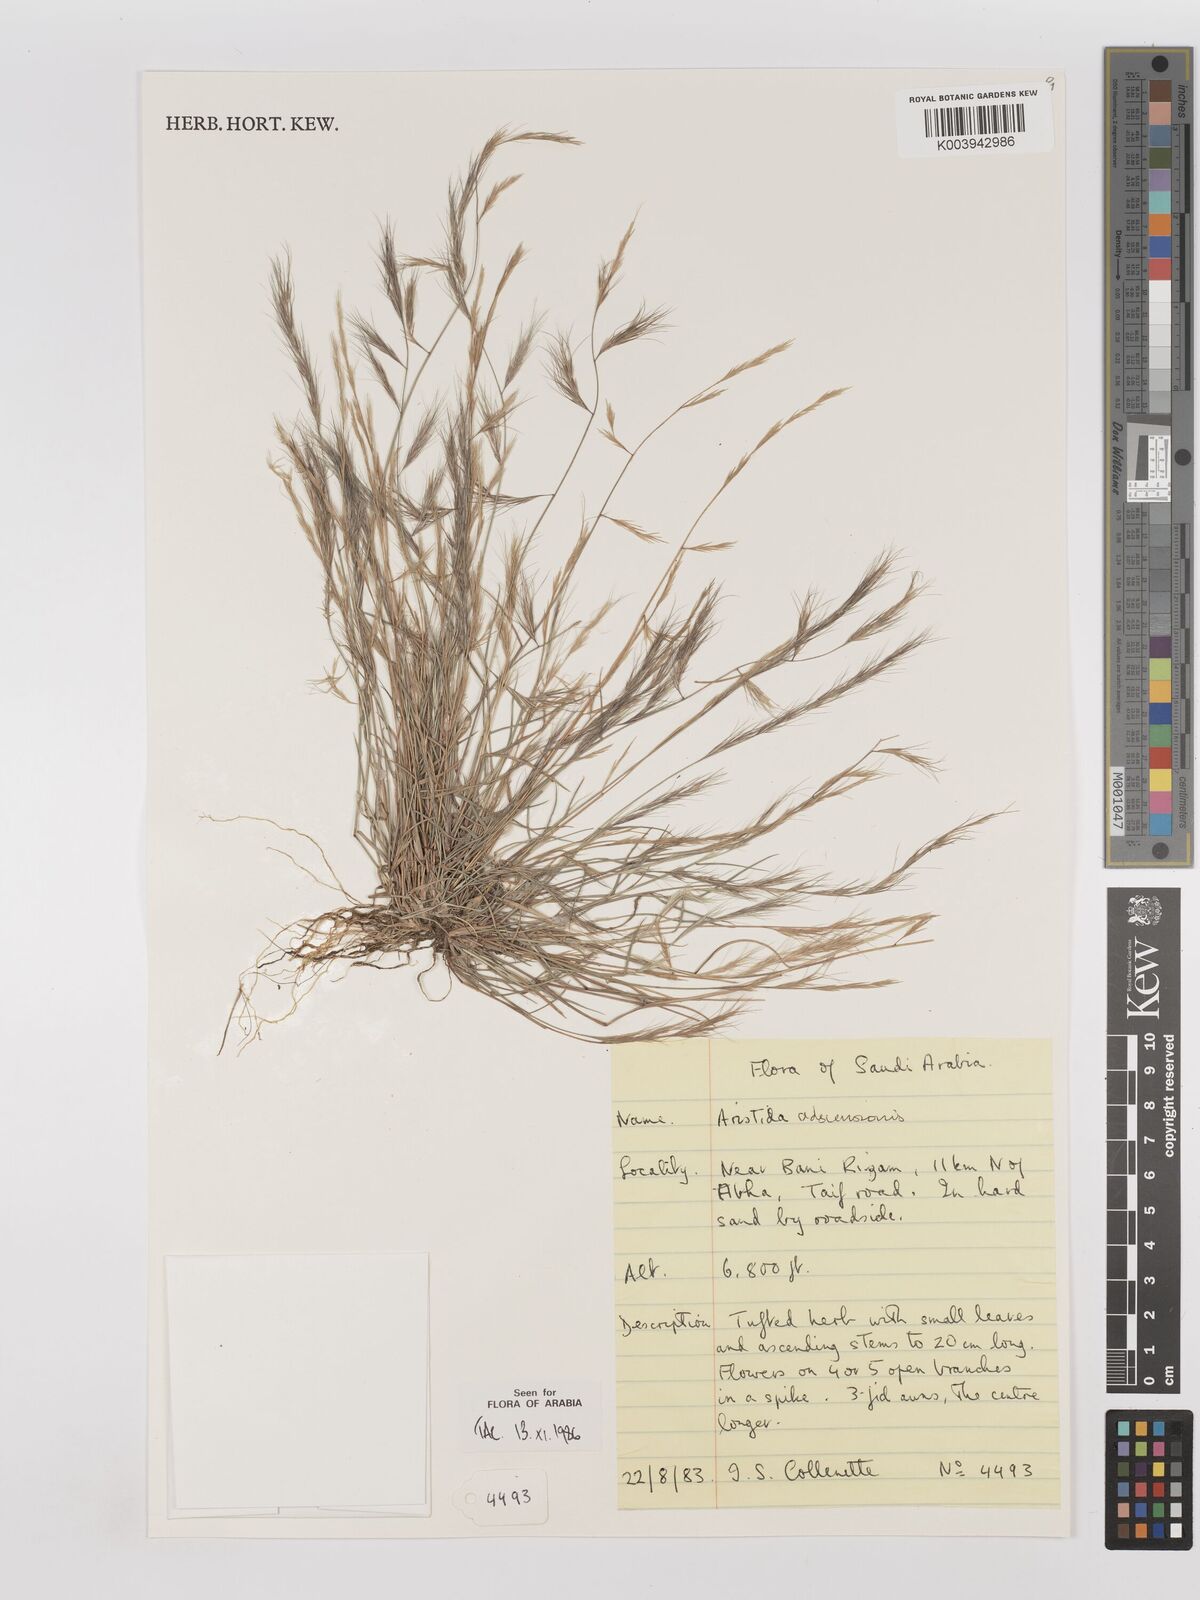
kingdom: Plantae
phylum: Tracheophyta
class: Liliopsida
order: Poales
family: Poaceae
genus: Aristida
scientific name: Aristida adscensionis
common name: Sixweeks threeawn
